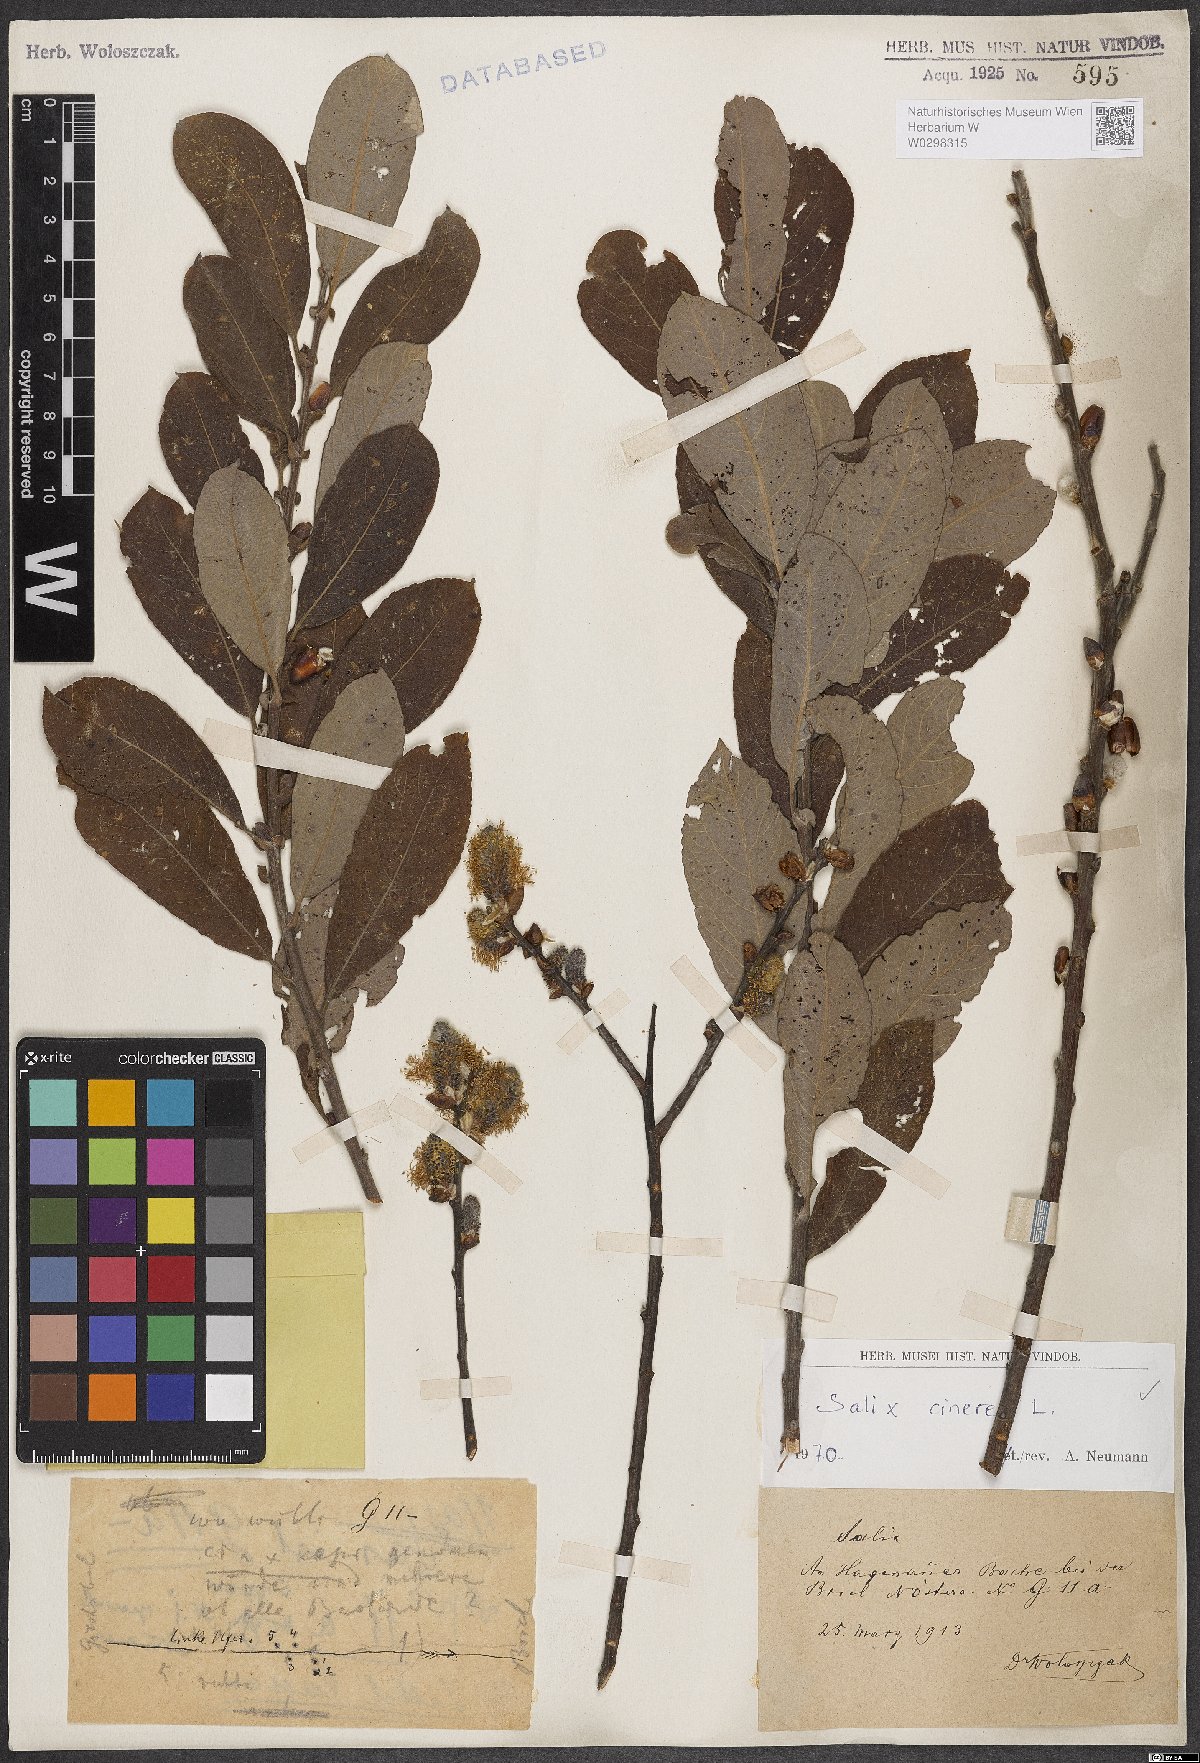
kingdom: Plantae
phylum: Tracheophyta
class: Magnoliopsida
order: Malpighiales
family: Salicaceae
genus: Salix
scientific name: Salix cinerea
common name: Common sallow
